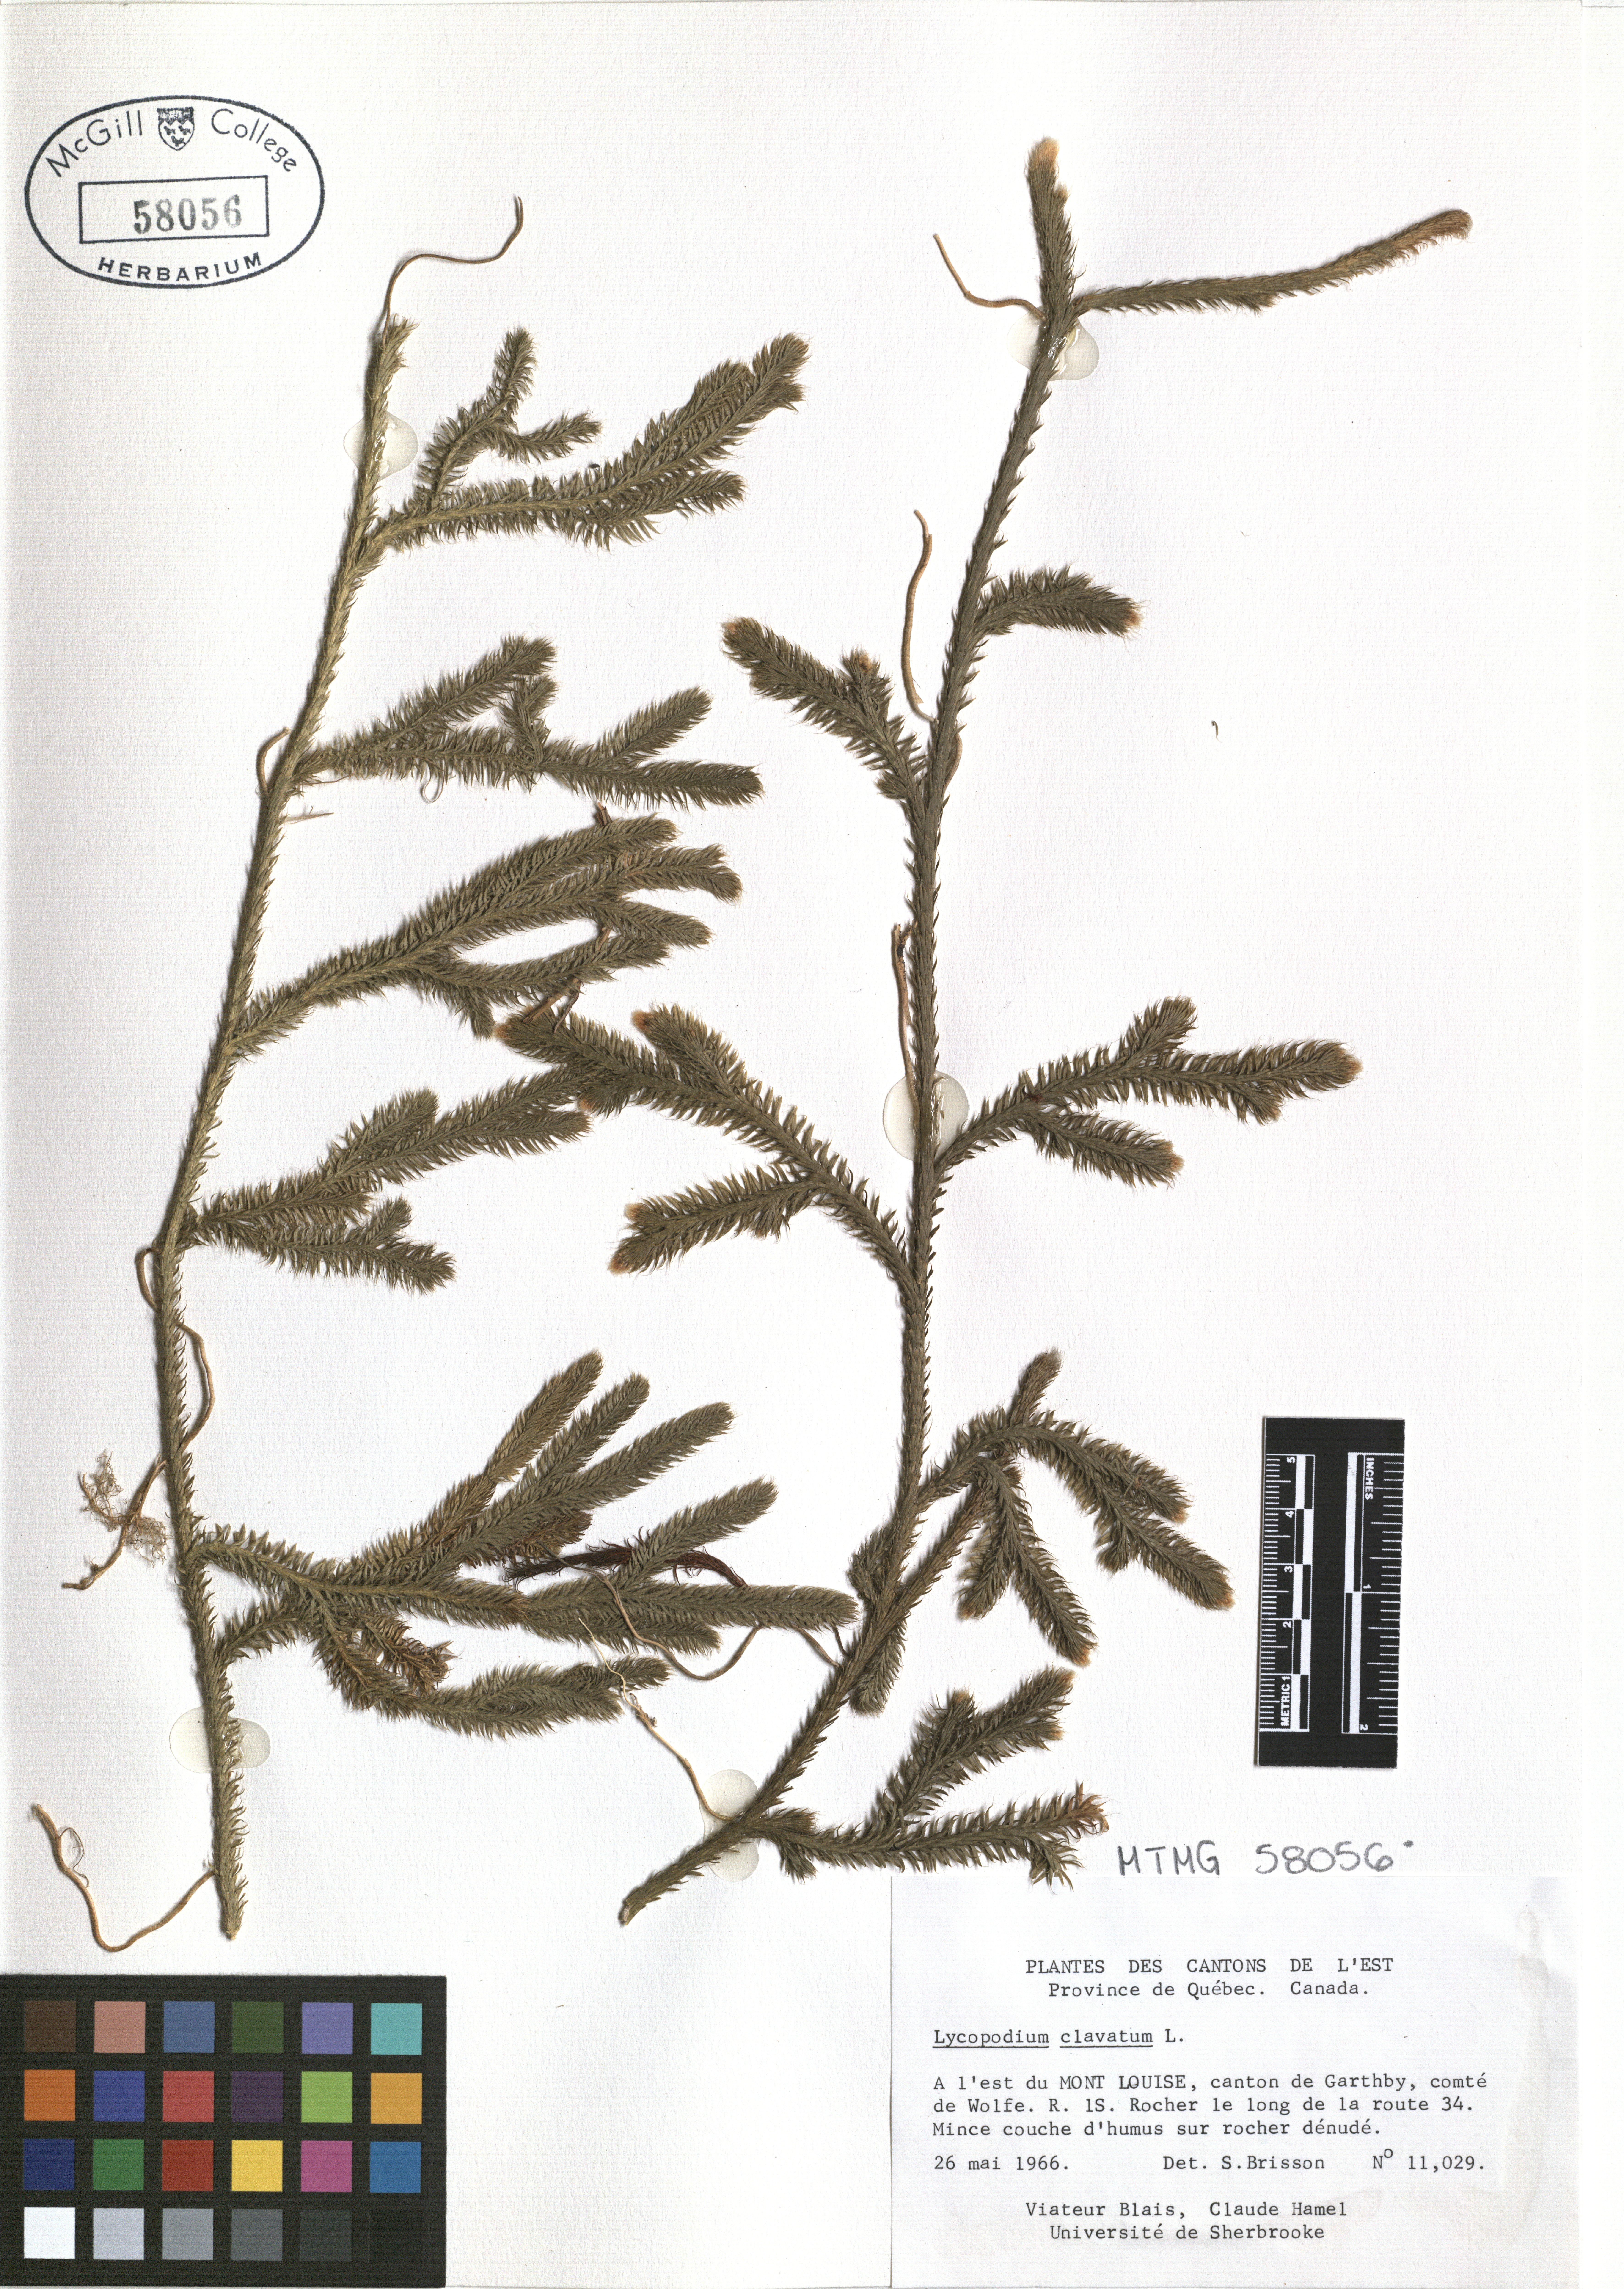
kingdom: Plantae
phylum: Tracheophyta
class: Lycopodiopsida
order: Lycopodiales
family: Lycopodiaceae
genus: Lycopodium
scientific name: Lycopodium clavatum
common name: Stag's-horn clubmoss
